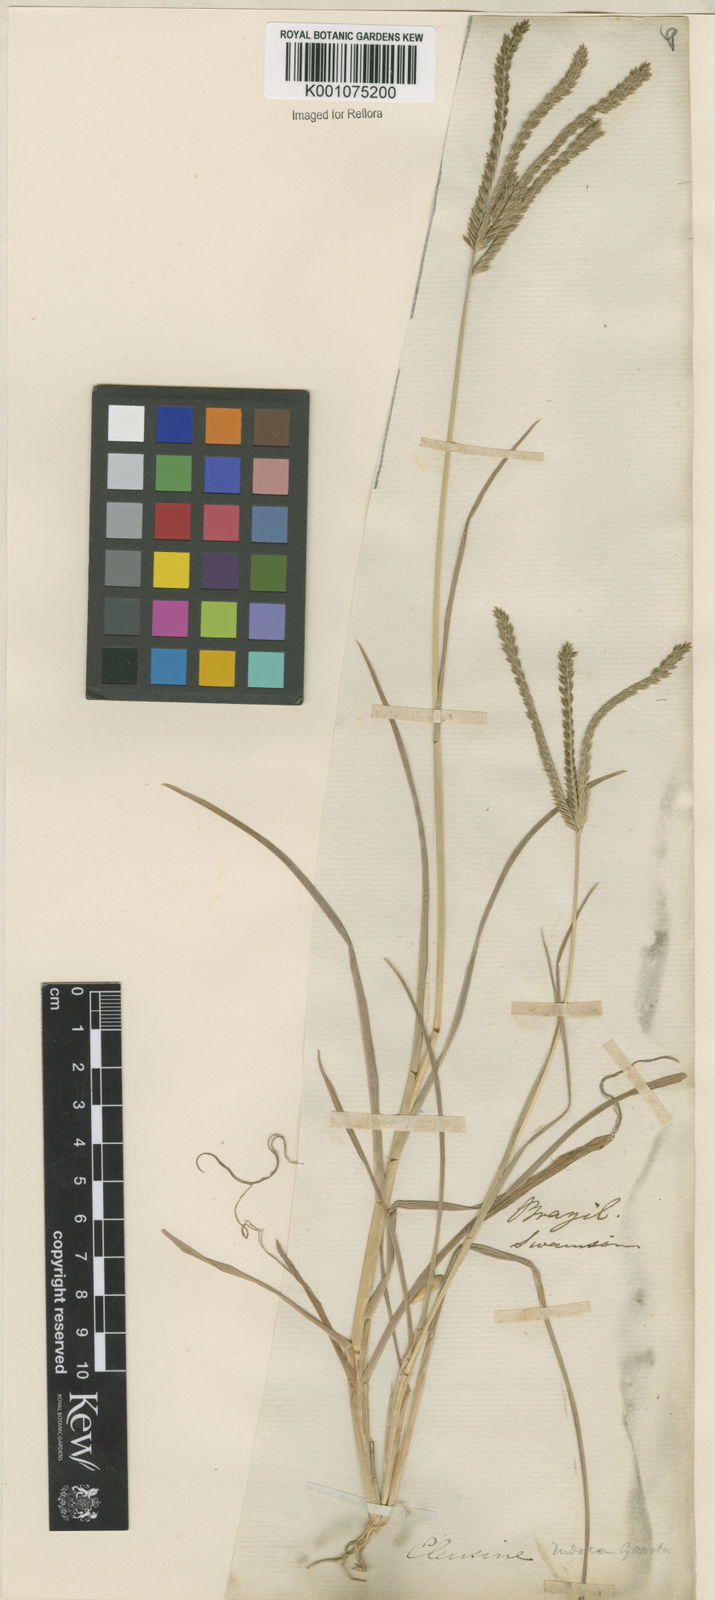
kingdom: Plantae
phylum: Tracheophyta
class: Liliopsida
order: Poales
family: Poaceae
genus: Eleusine
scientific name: Eleusine indica
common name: Yard-grass
